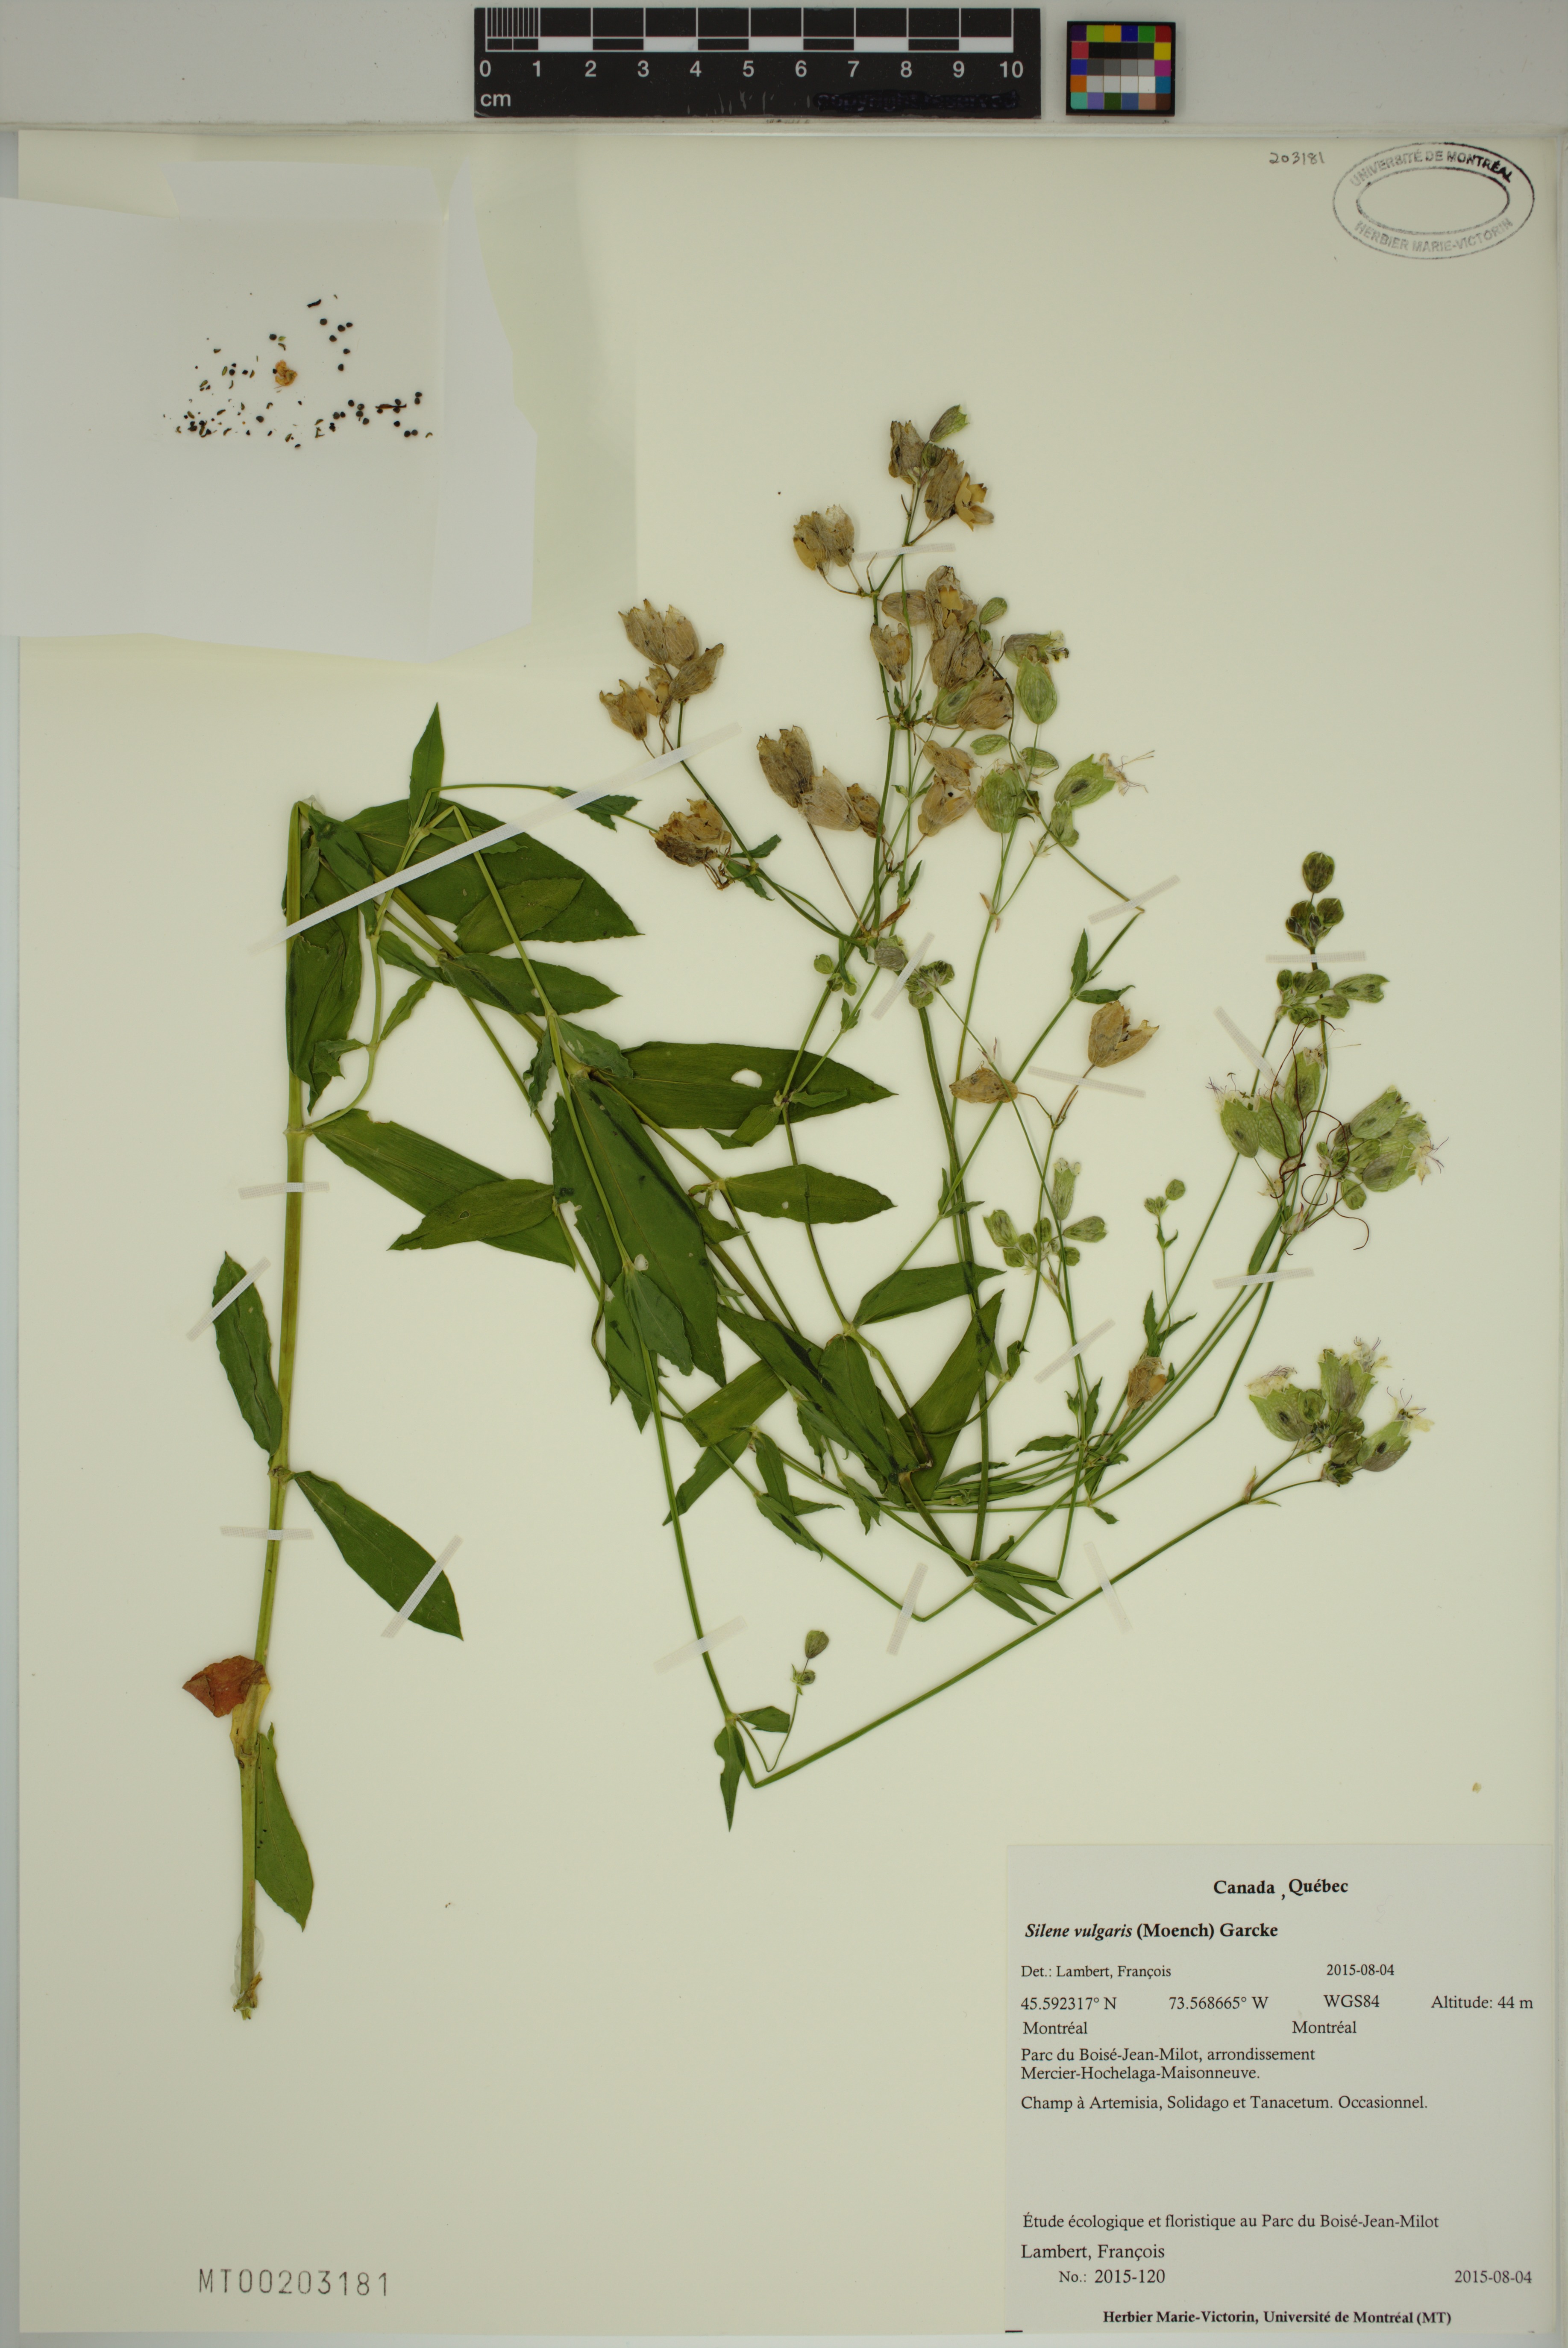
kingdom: Plantae
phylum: Tracheophyta
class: Magnoliopsida
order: Caryophyllales
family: Caryophyllaceae
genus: Silene
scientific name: Silene vulgaris
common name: Bladder campion
